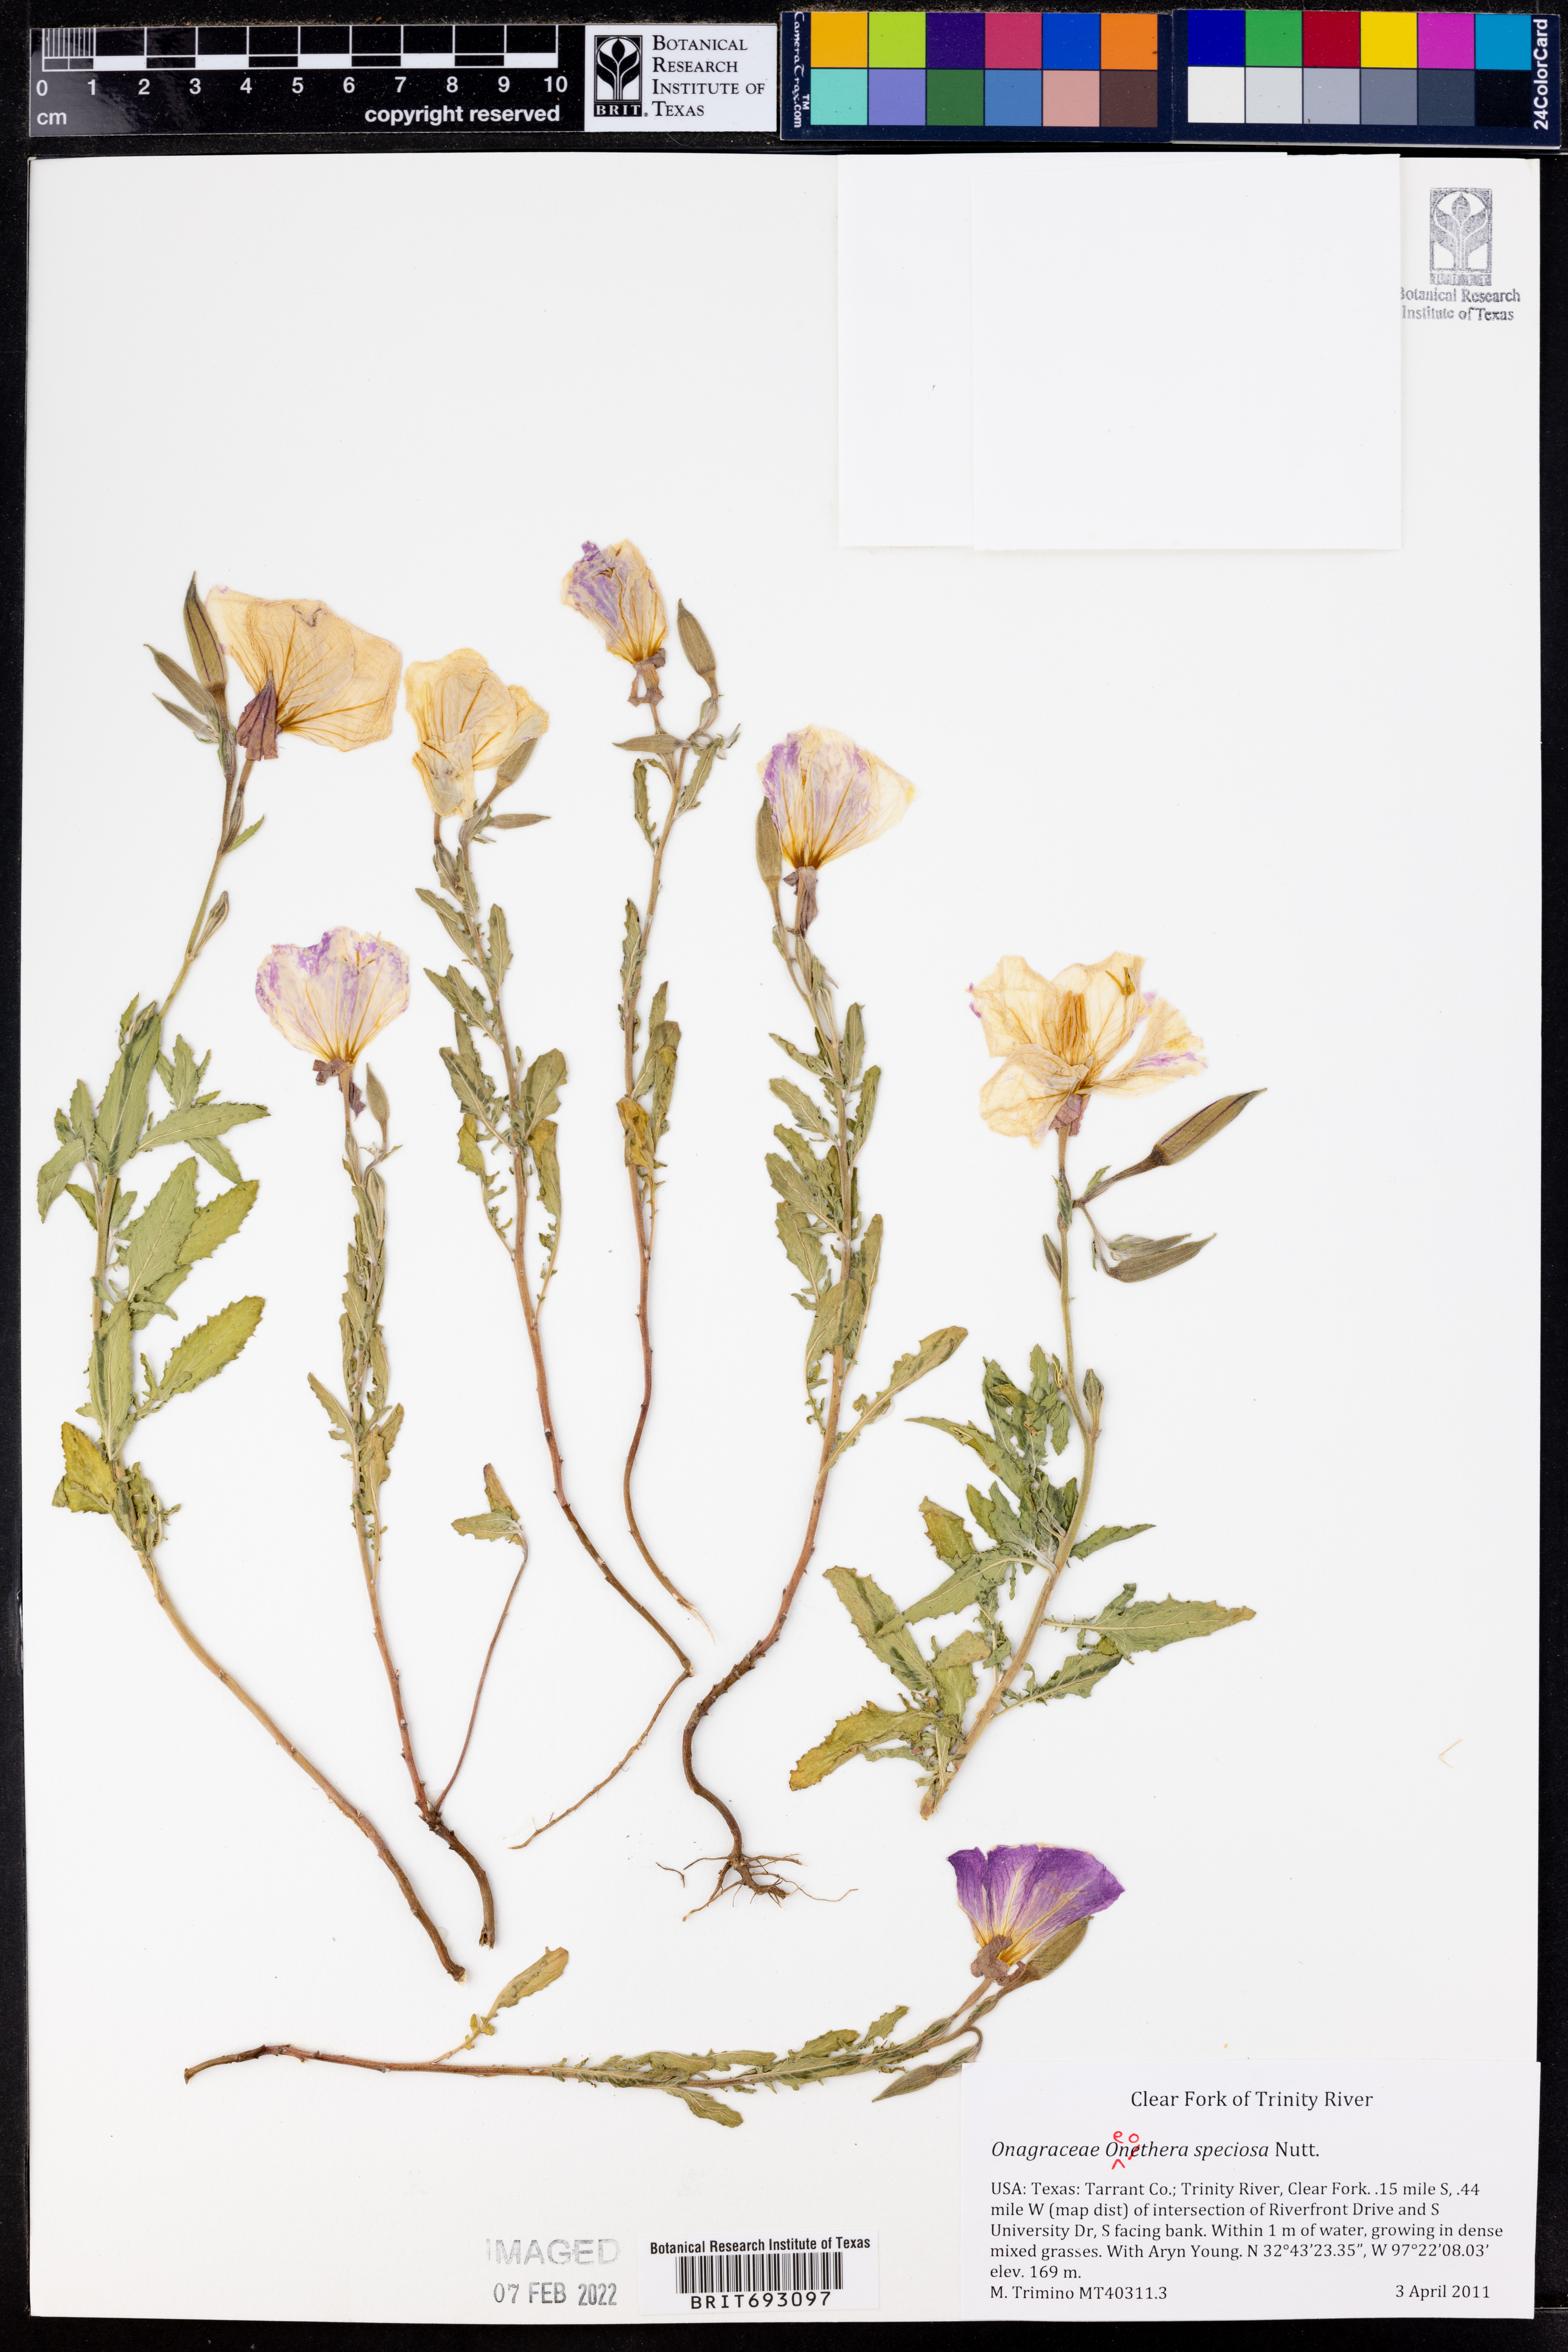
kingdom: Plantae
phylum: Tracheophyta
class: Magnoliopsida
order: Myrtales
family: Onagraceae
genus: Oenothera
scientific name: Oenothera speciosa
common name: White evening-primrose
